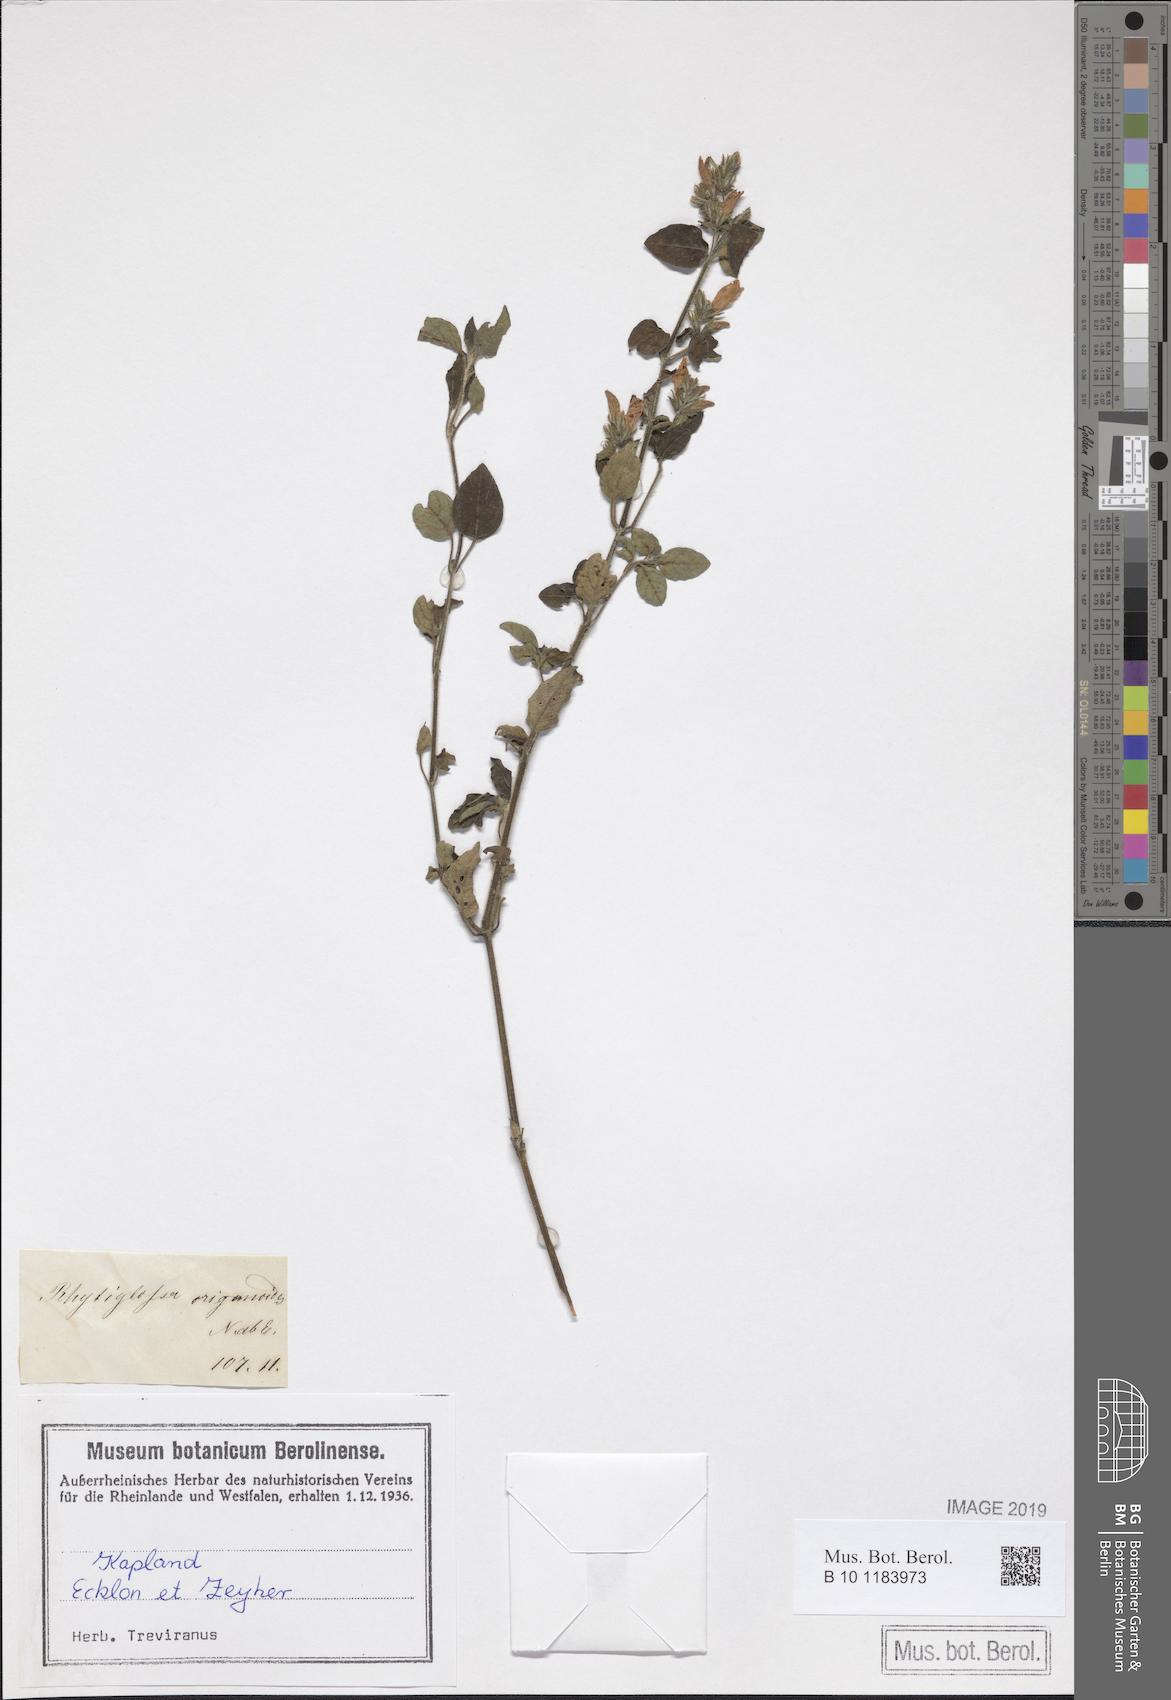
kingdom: Plantae
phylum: Tracheophyta
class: Magnoliopsida
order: Lamiales
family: Acanthaceae
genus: Isoglossa
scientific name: Isoglossa origanoides
